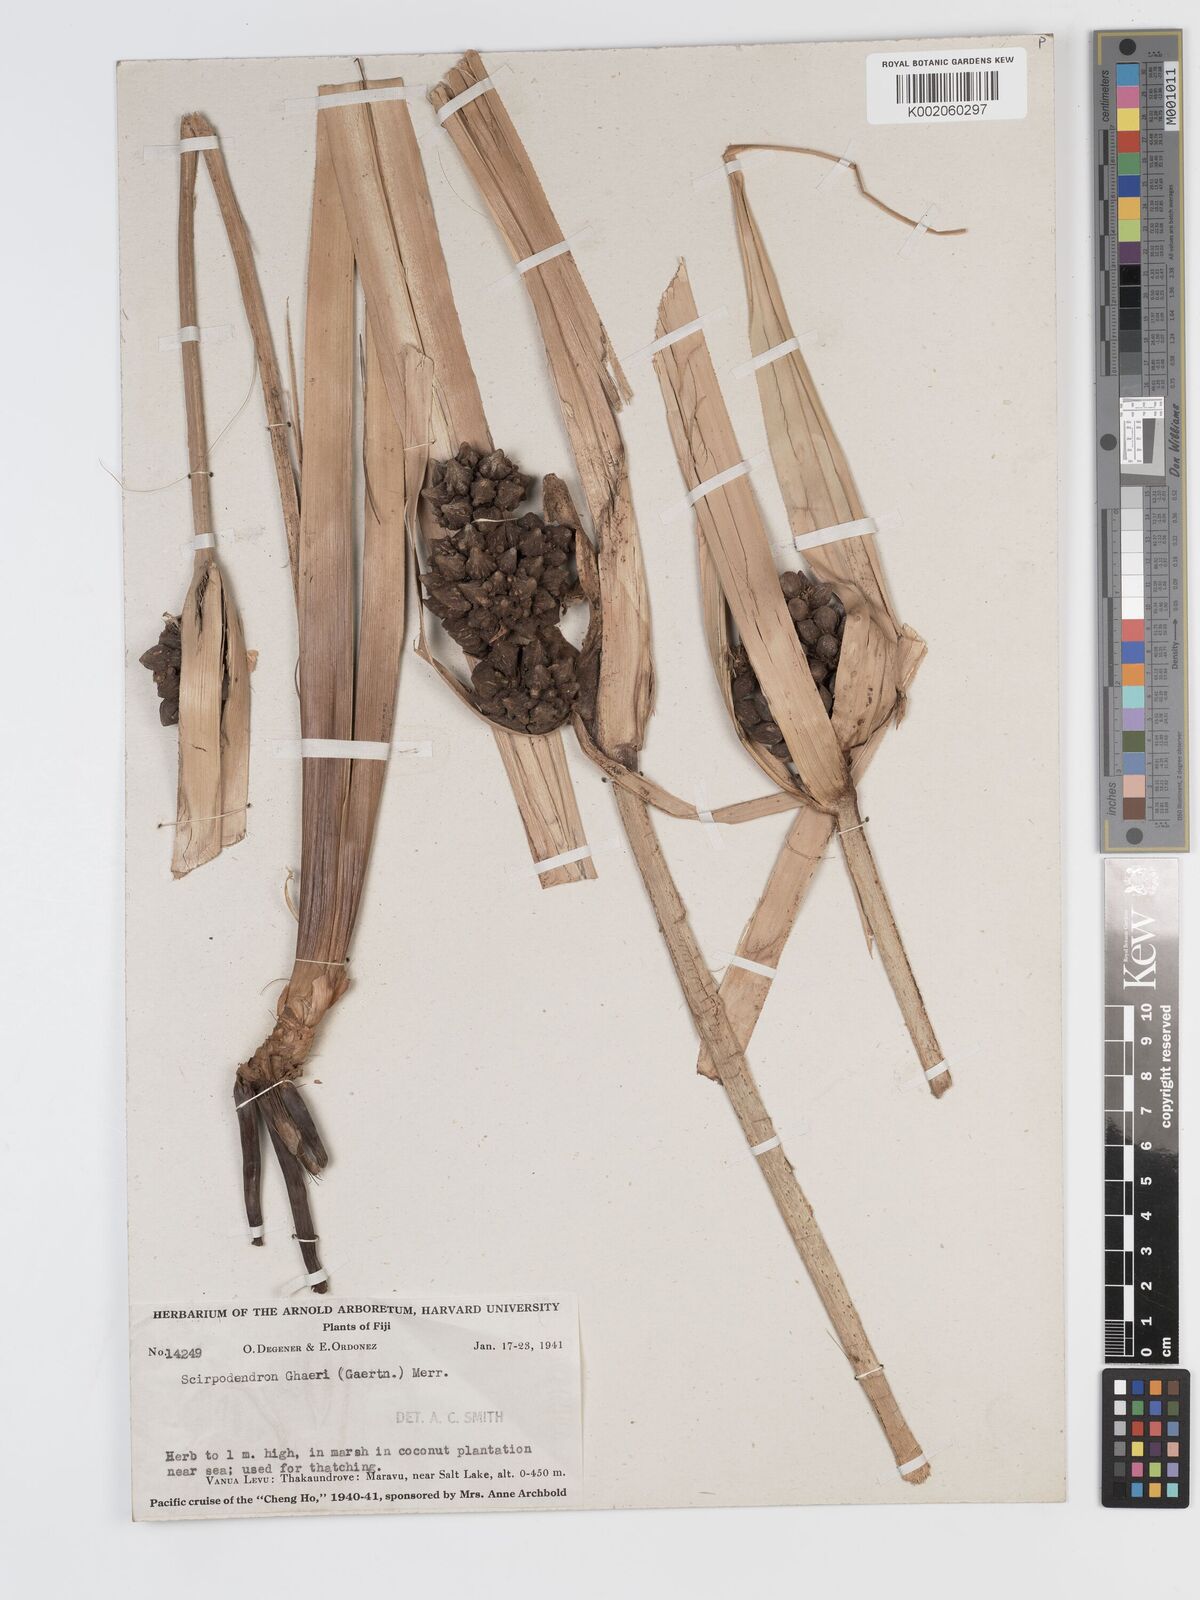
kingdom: Plantae
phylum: Tracheophyta
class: Liliopsida
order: Poales
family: Cyperaceae
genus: Scirpodendron
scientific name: Scirpodendron ghaeri
